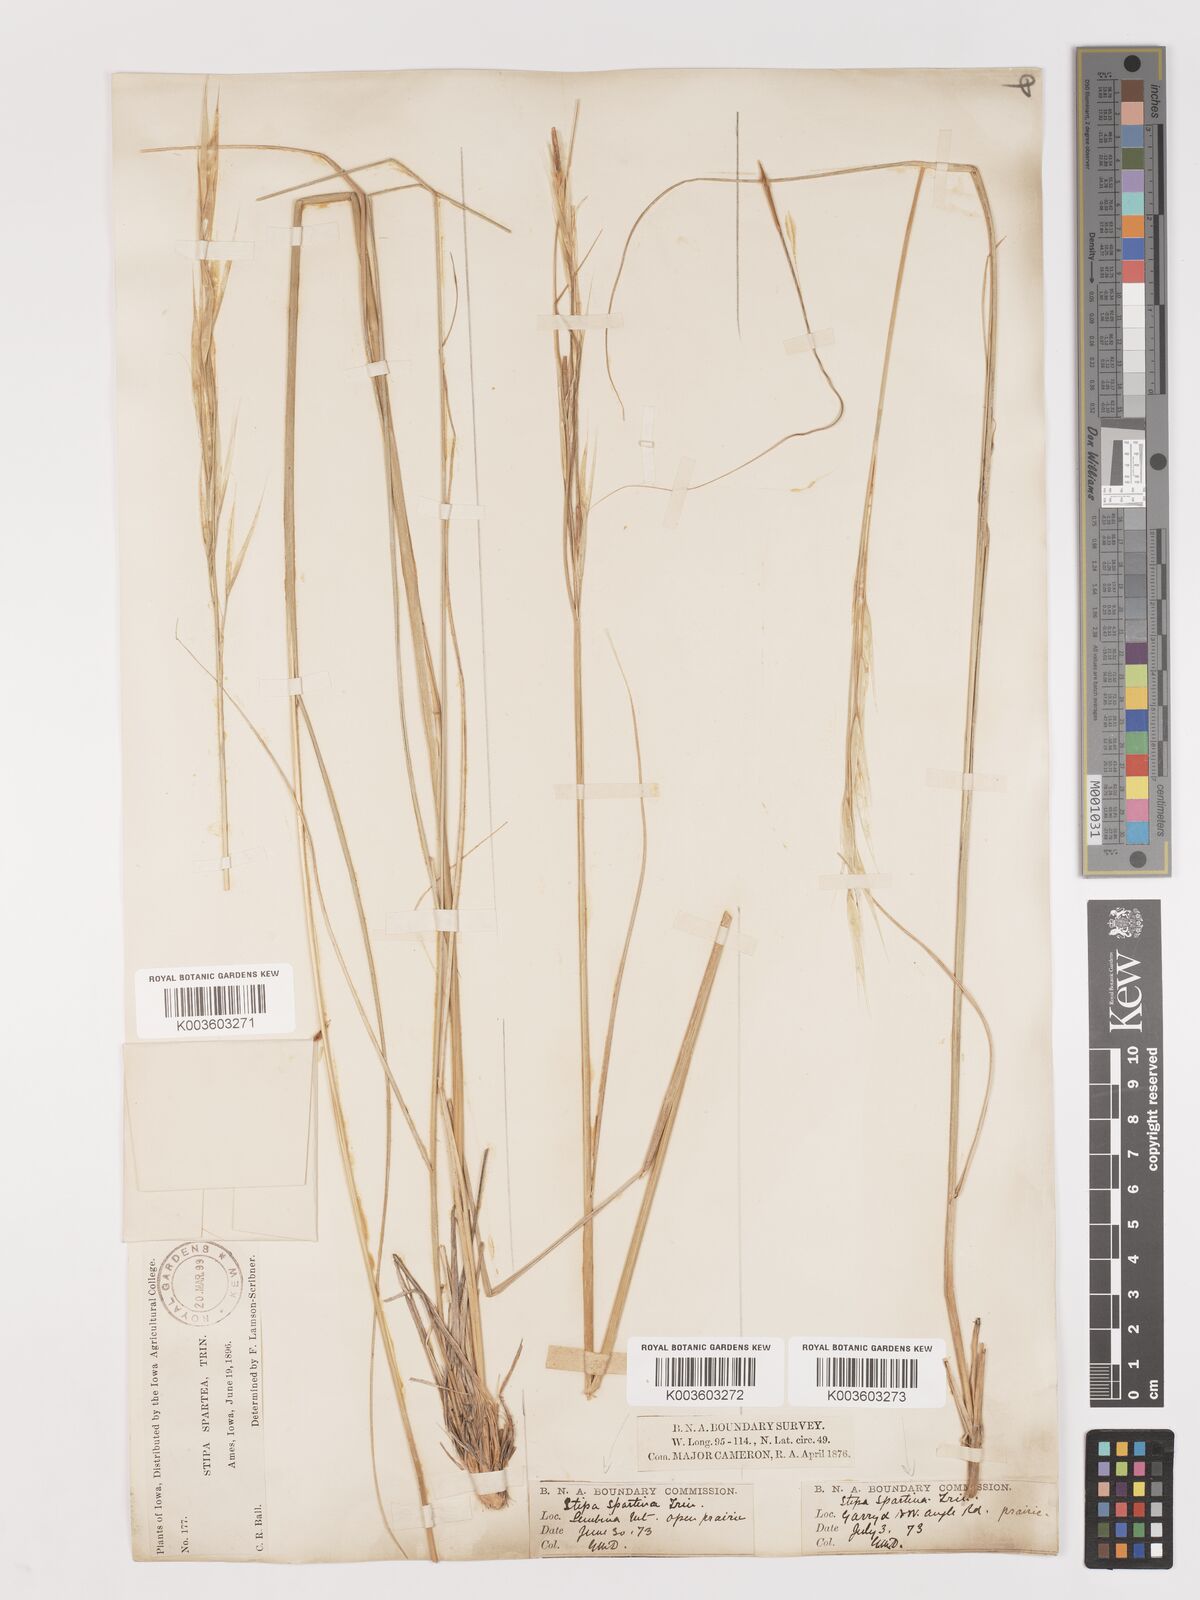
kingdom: Plantae
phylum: Tracheophyta
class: Liliopsida
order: Poales
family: Poaceae
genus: Hesperostipa
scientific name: Hesperostipa spartea
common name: Porcupine grass
